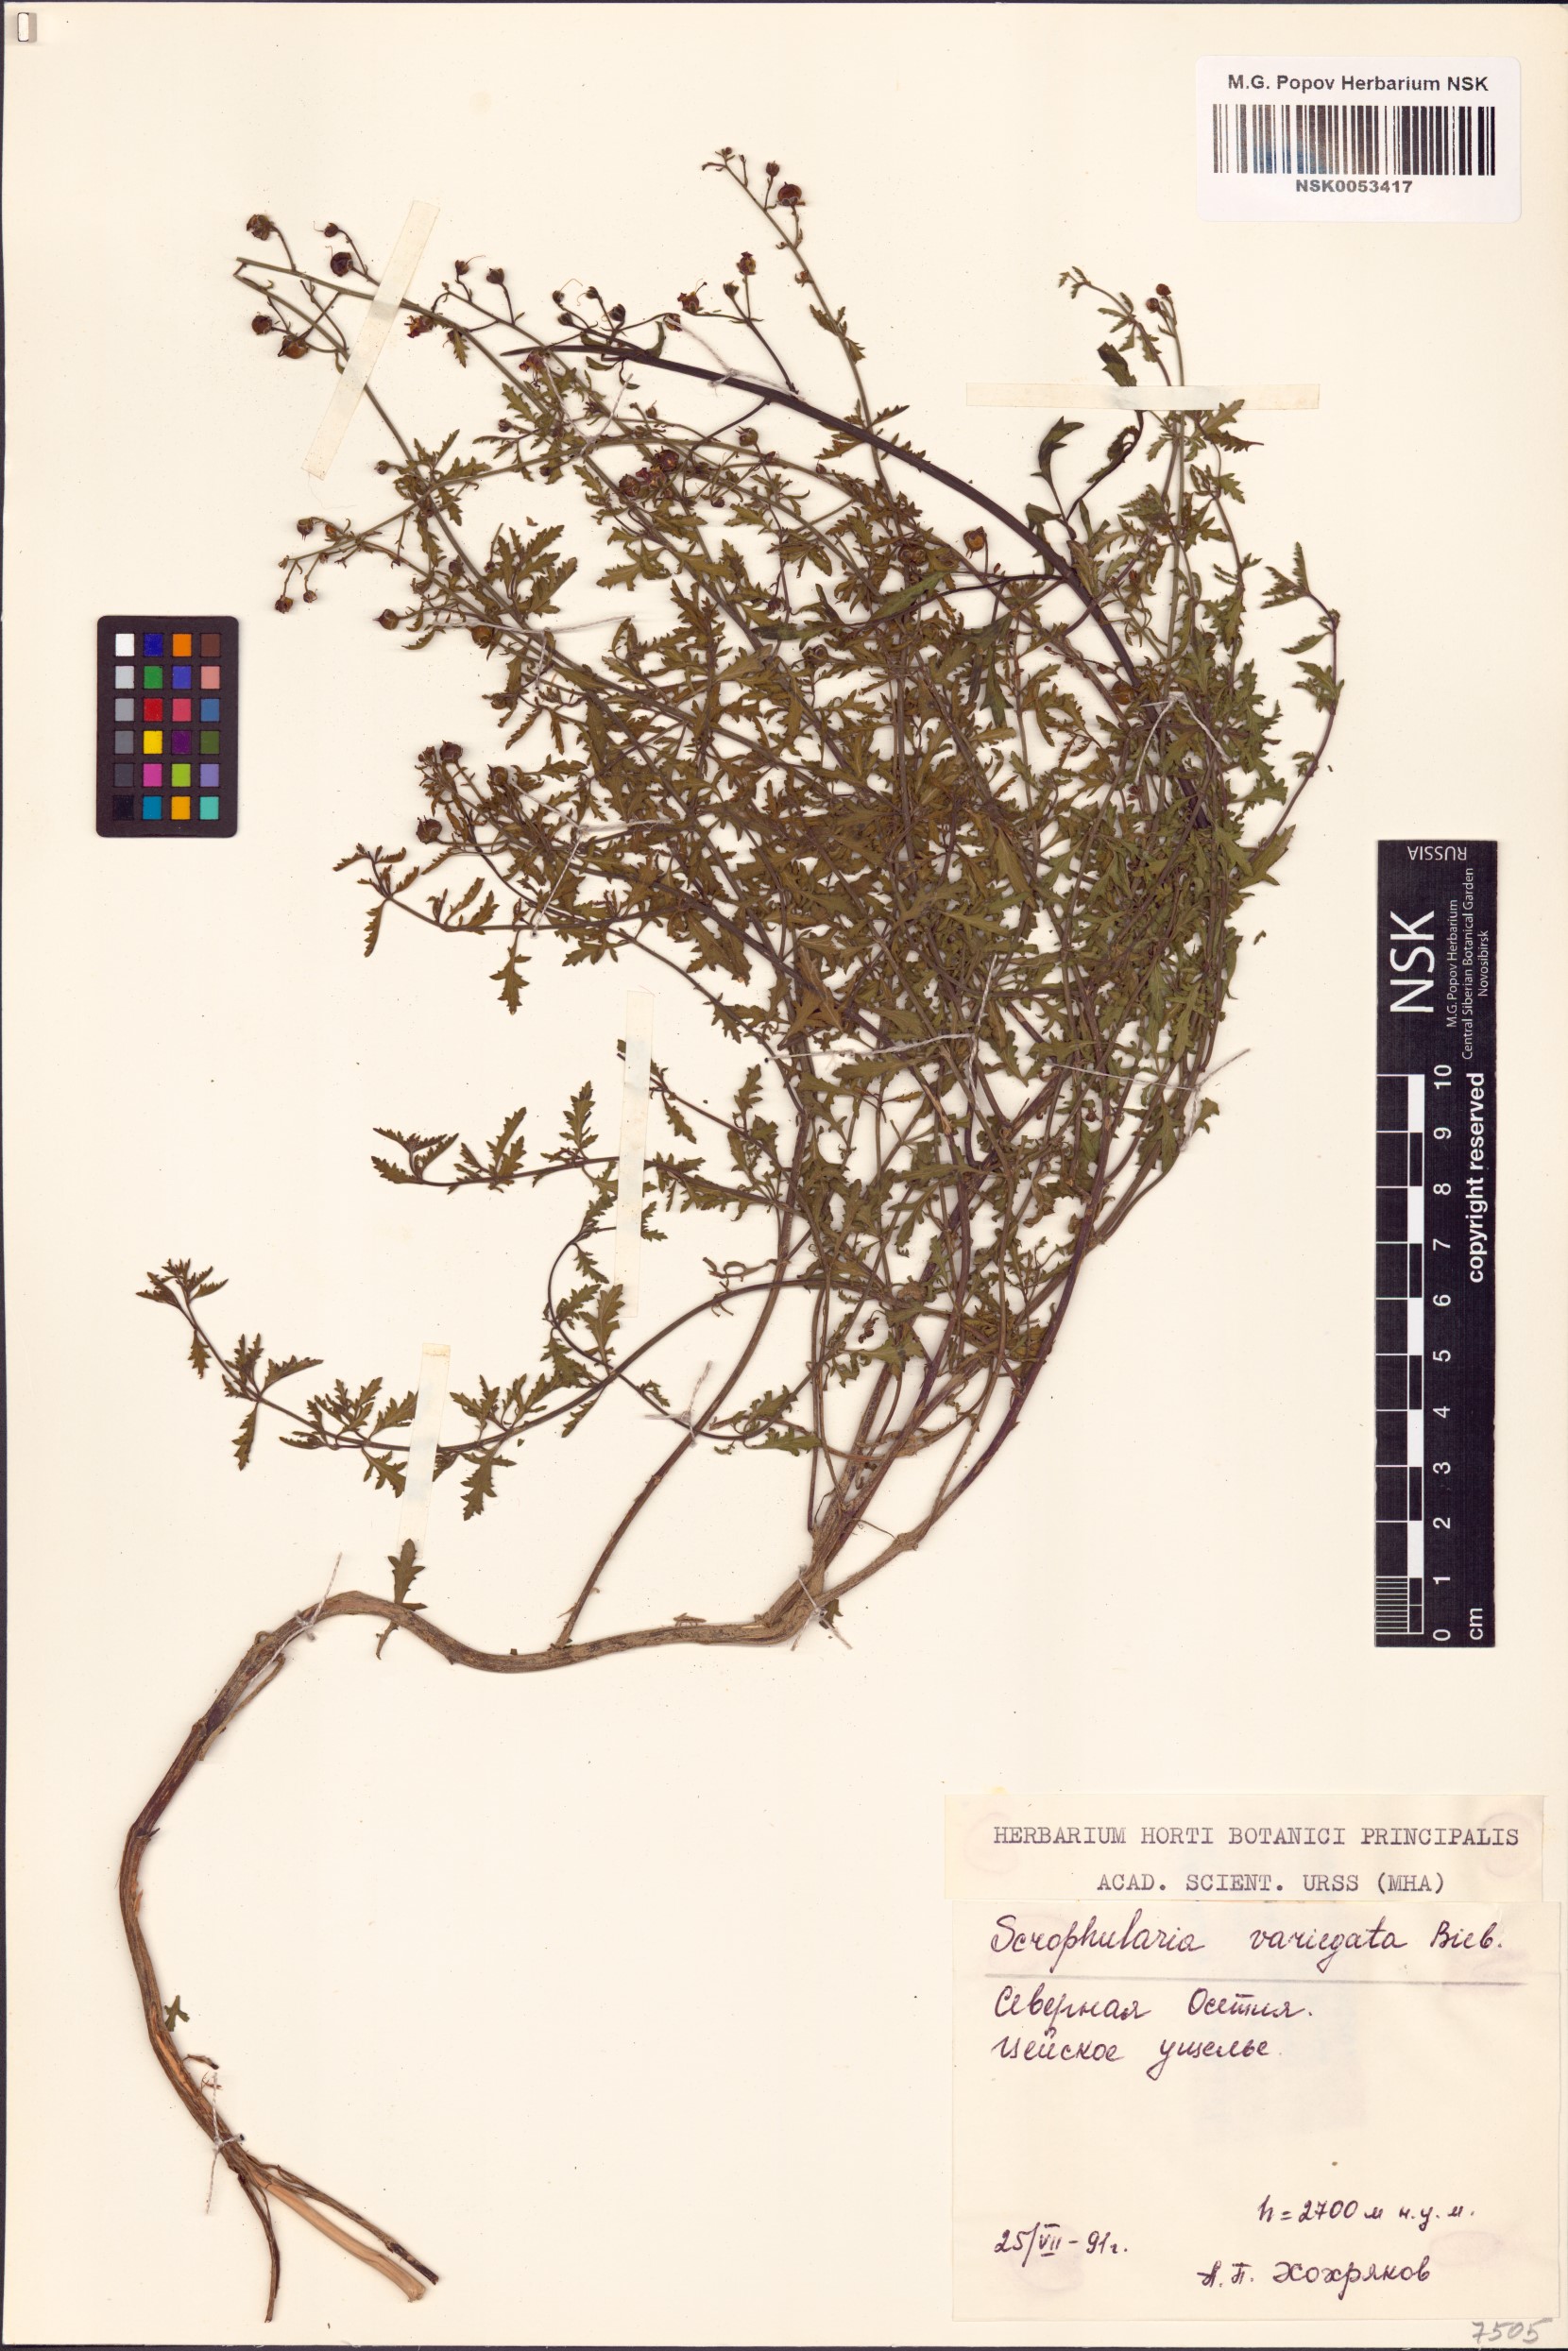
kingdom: Plantae
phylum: Tracheophyta
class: Magnoliopsida
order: Lamiales
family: Scrophulariaceae
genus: Scrophularia
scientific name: Scrophularia variegata
